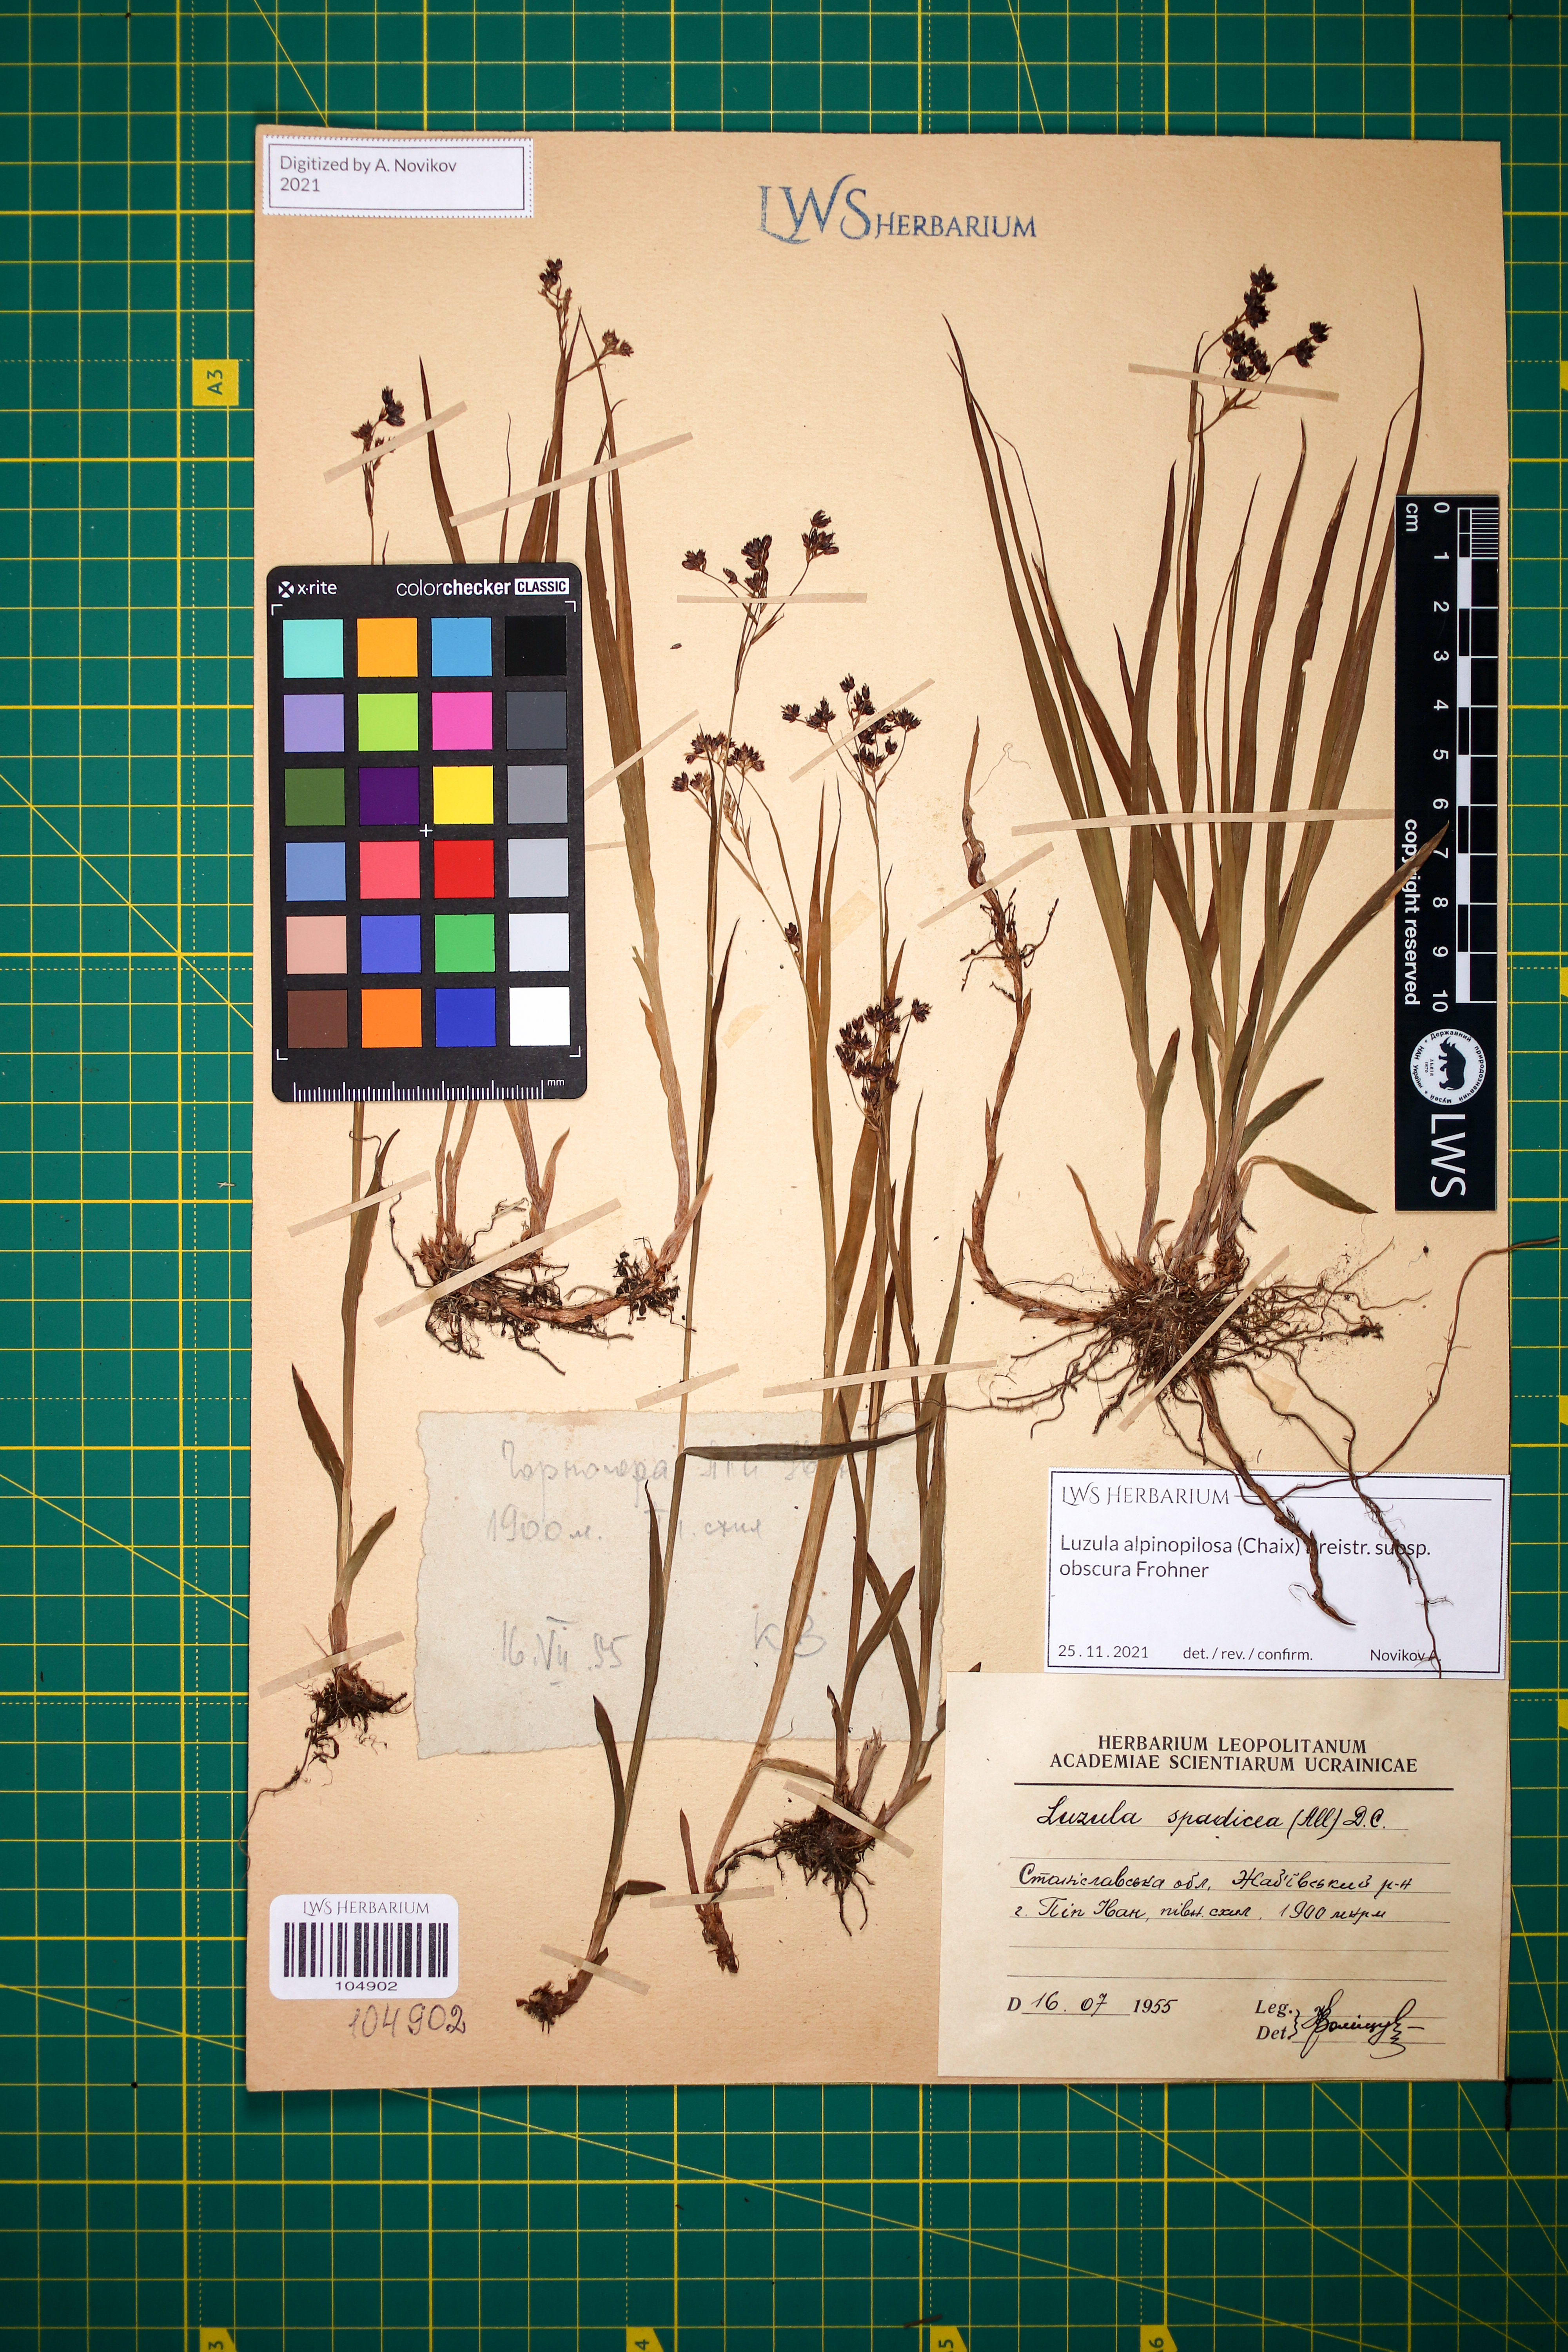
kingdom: Plantae
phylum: Tracheophyta
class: Liliopsida
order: Poales
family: Juncaceae
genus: Luzula
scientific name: Luzula alpinopilosa
